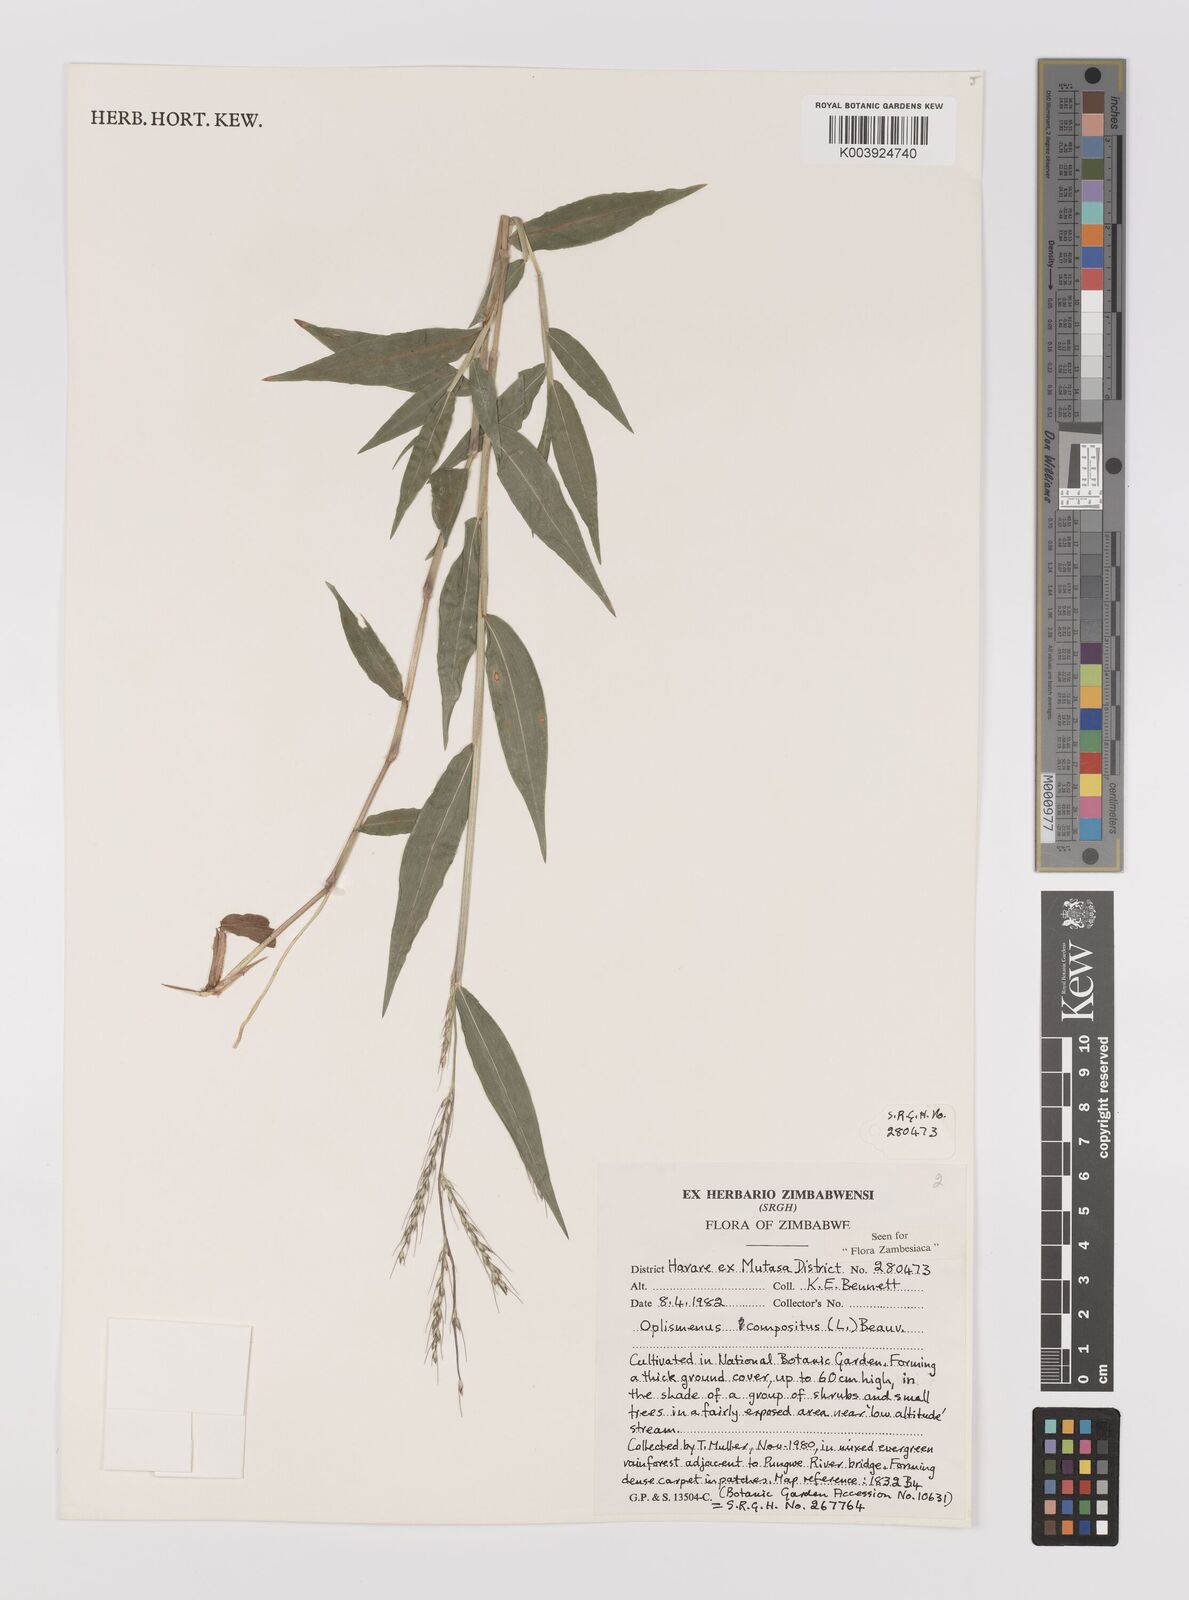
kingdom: Plantae
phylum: Tracheophyta
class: Liliopsida
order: Poales
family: Poaceae
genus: Oplismenus
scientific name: Oplismenus compositus
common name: Running mountain grass
